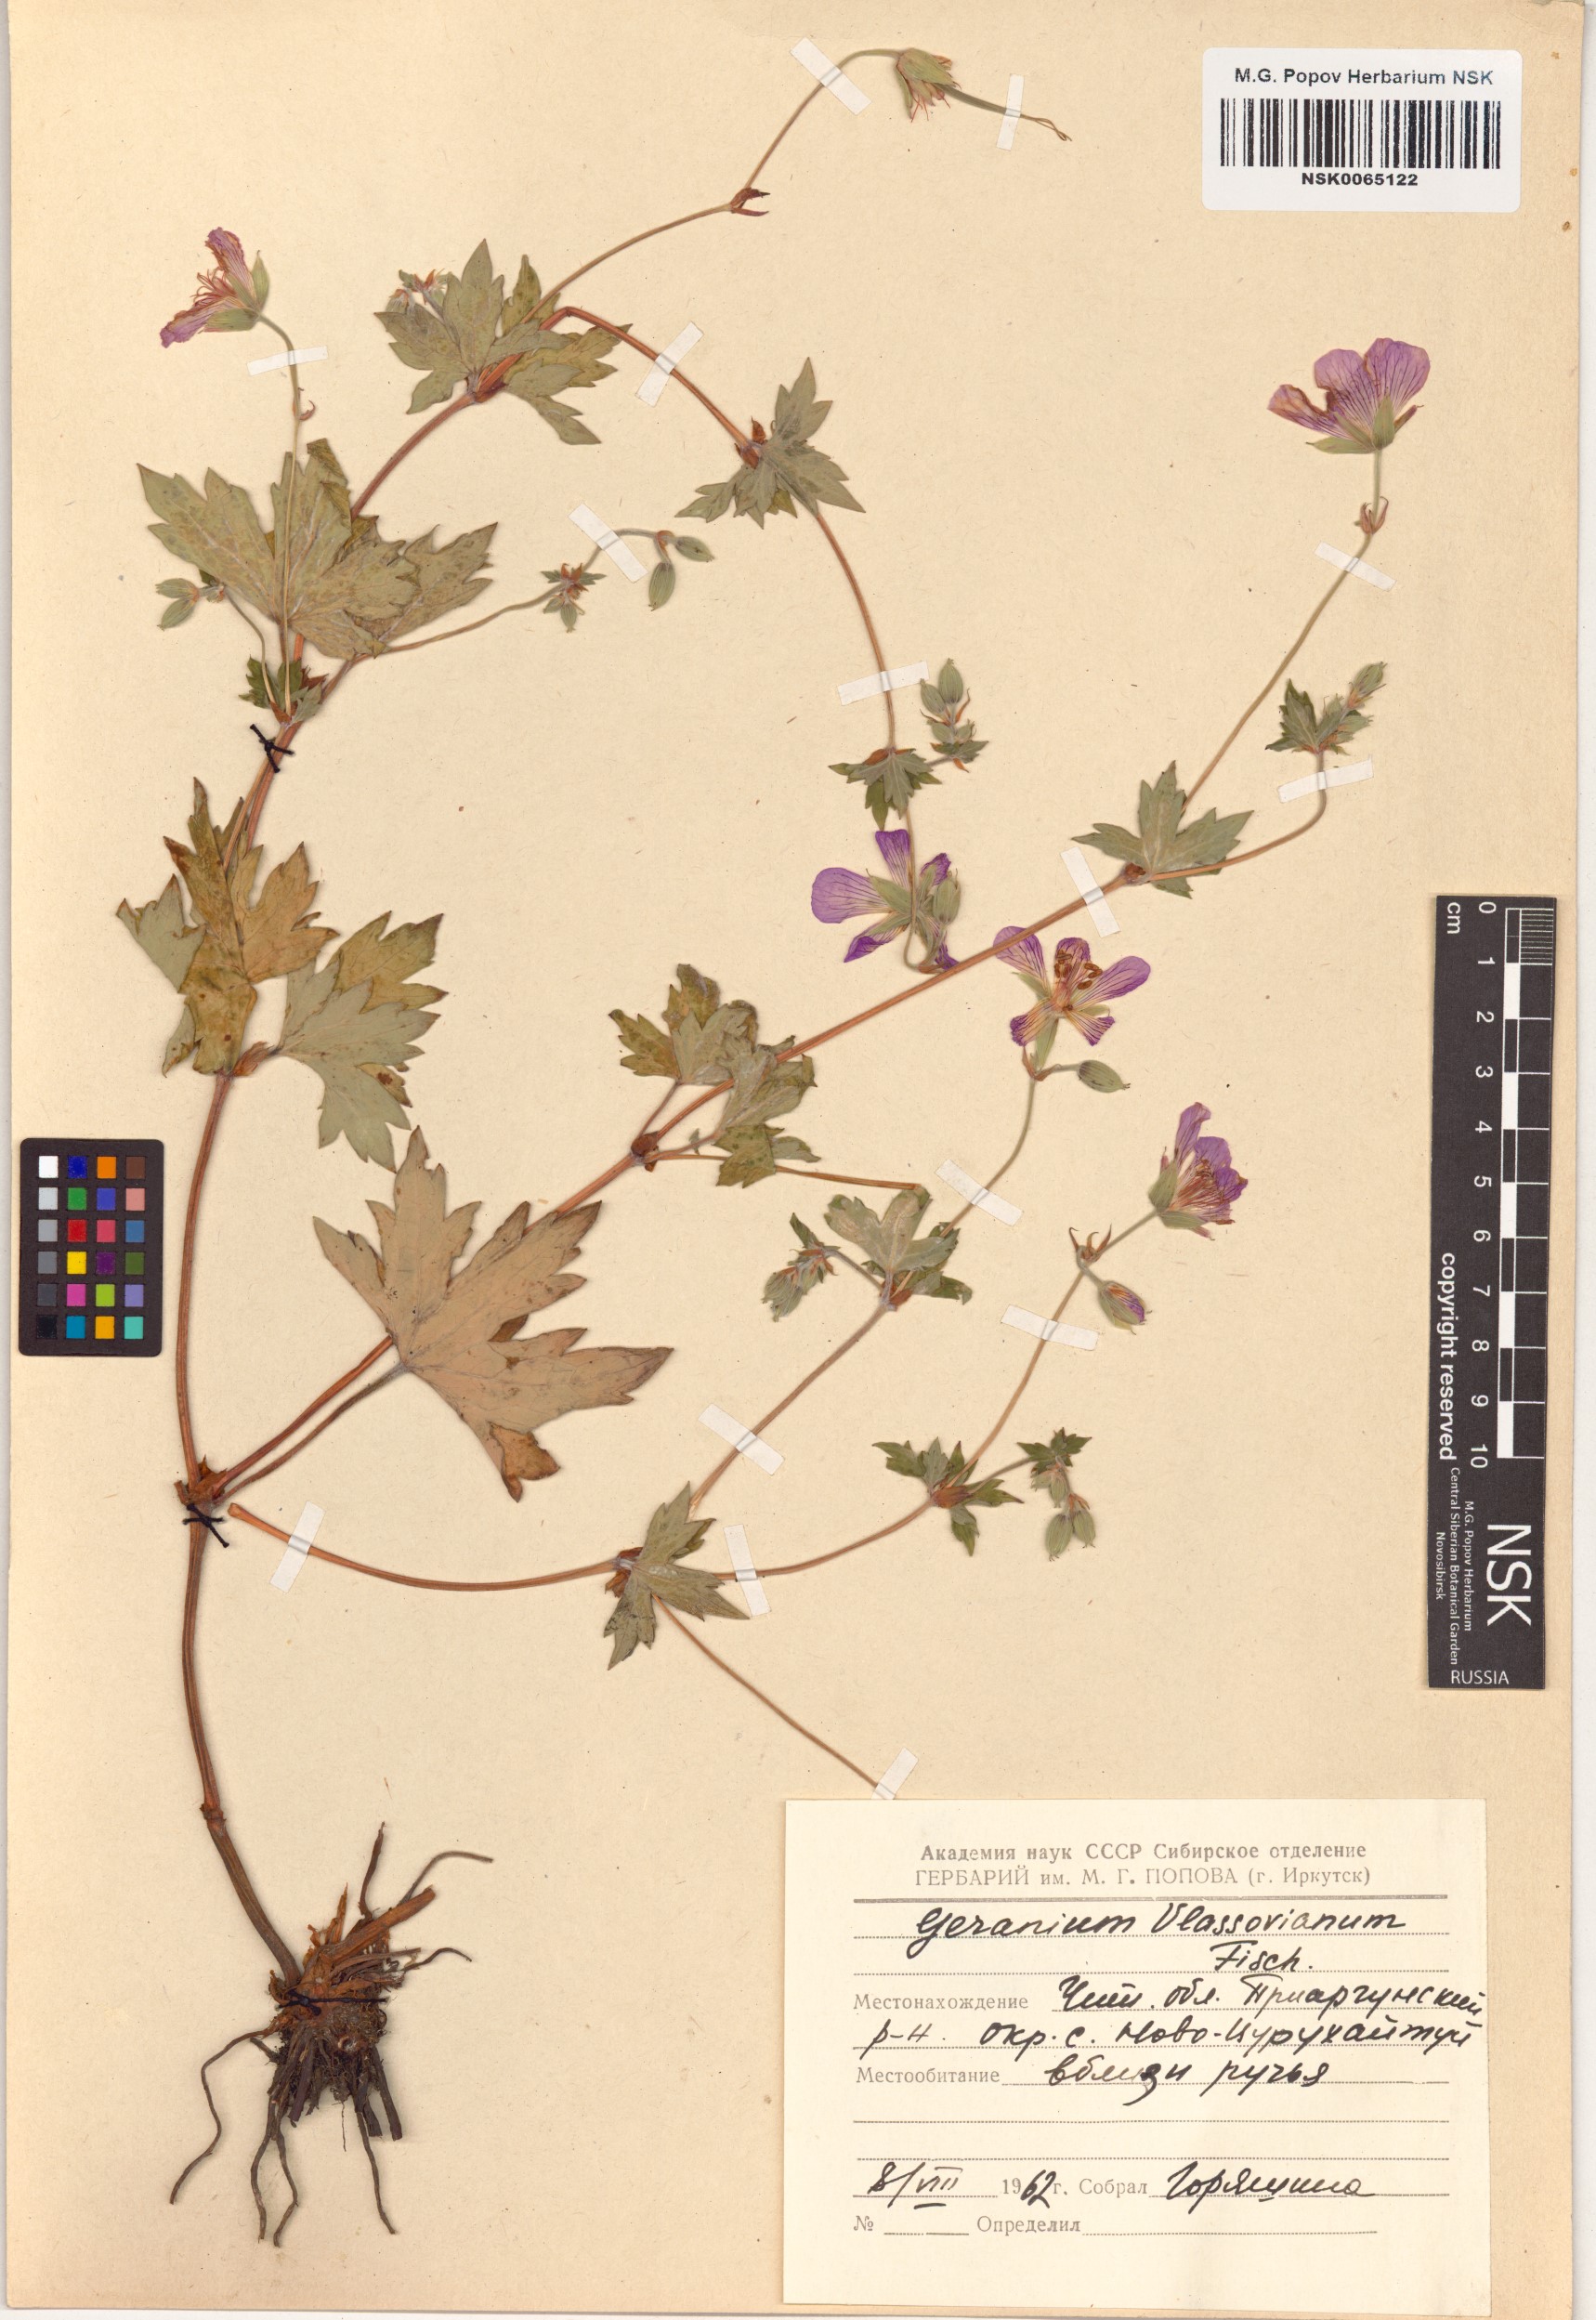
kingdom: Plantae
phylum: Tracheophyta
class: Magnoliopsida
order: Geraniales
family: Geraniaceae
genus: Geranium
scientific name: Geranium wlassovianum
